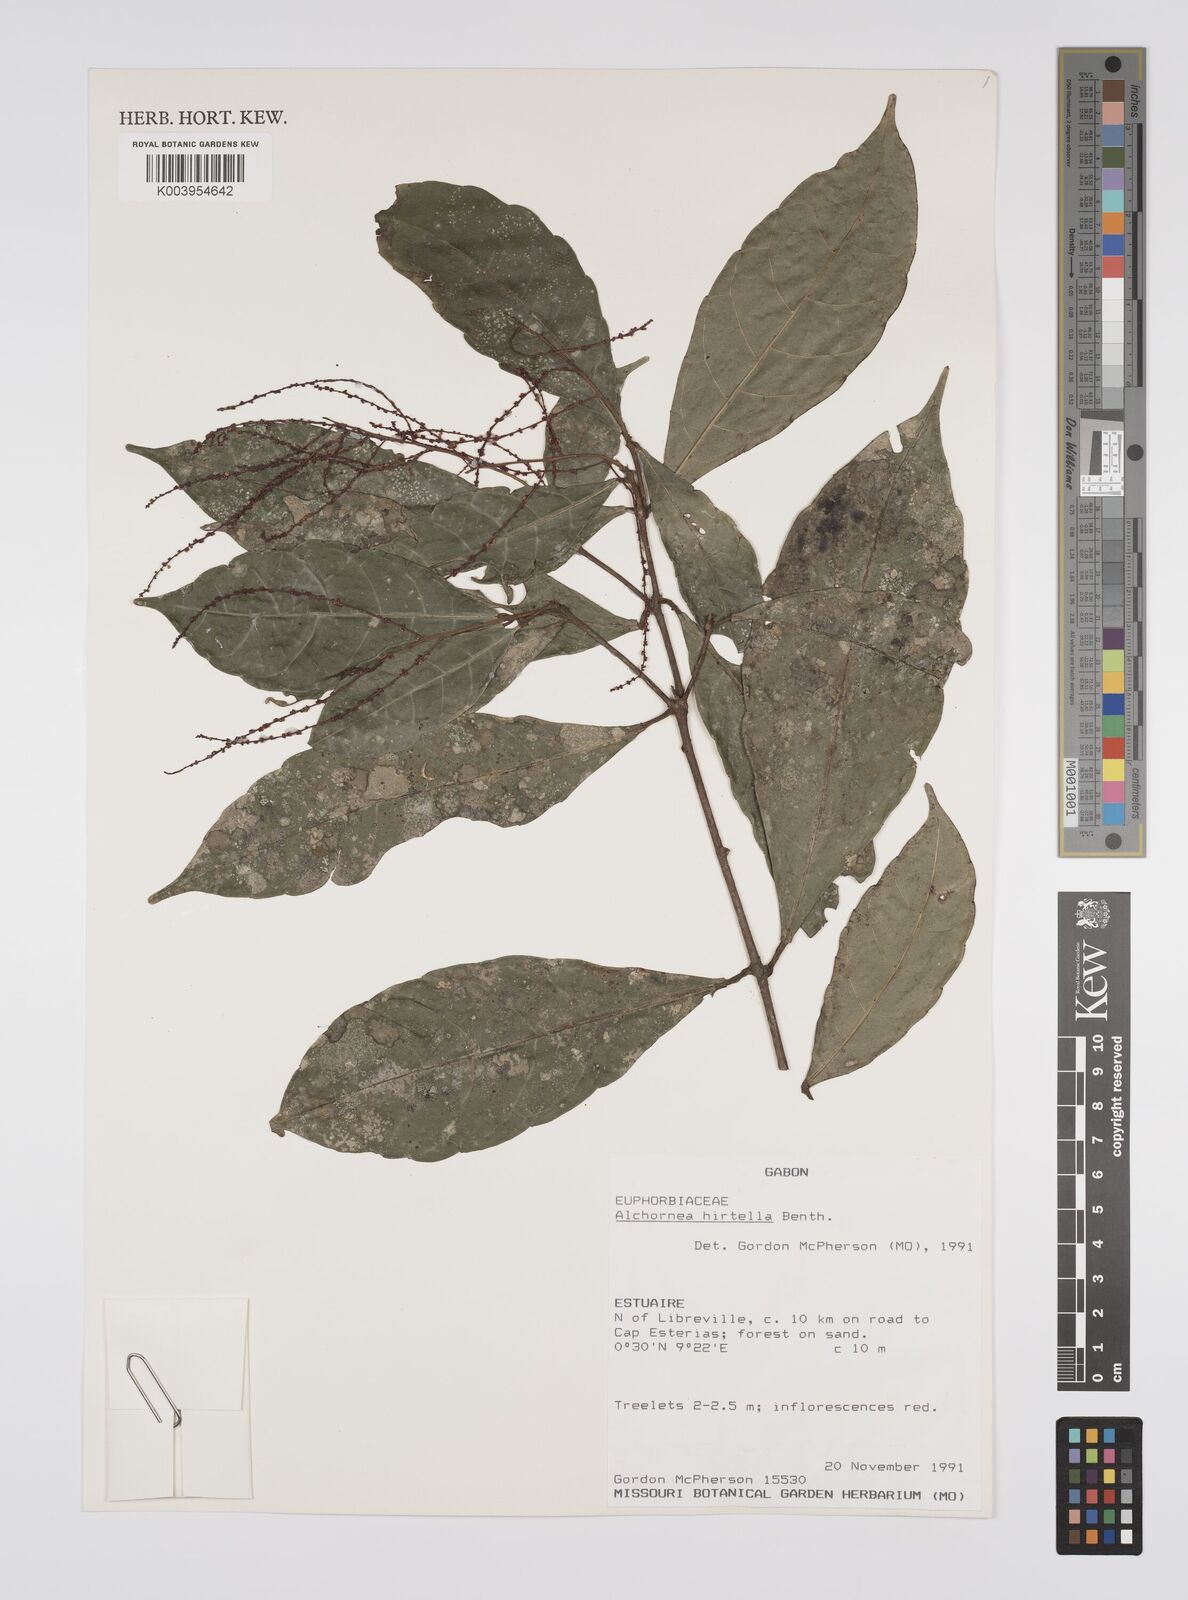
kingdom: Plantae
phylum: Tracheophyta
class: Magnoliopsida
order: Malpighiales
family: Euphorbiaceae
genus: Alchornea
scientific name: Alchornea hirtella
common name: Forest bead-string
